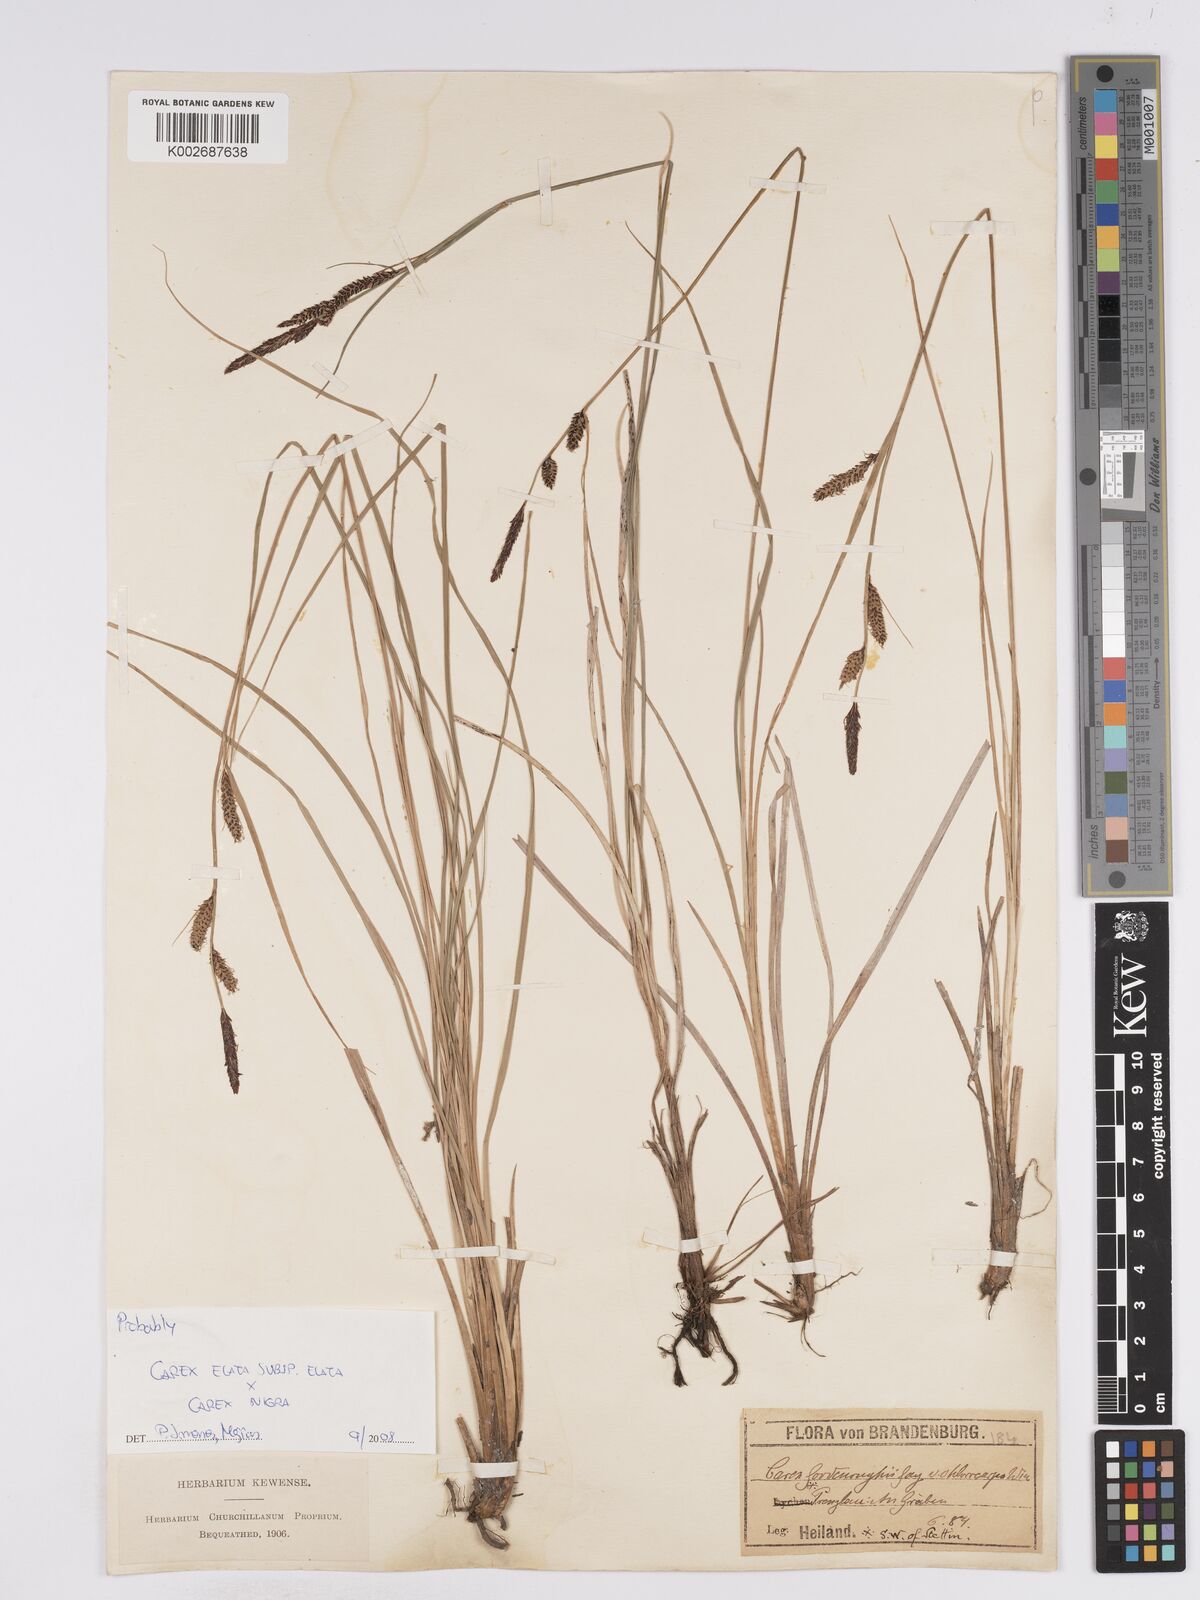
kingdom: Plantae
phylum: Tracheophyta
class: Liliopsida
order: Poales
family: Cyperaceae
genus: Carex
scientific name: Carex nigra
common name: Common sedge
